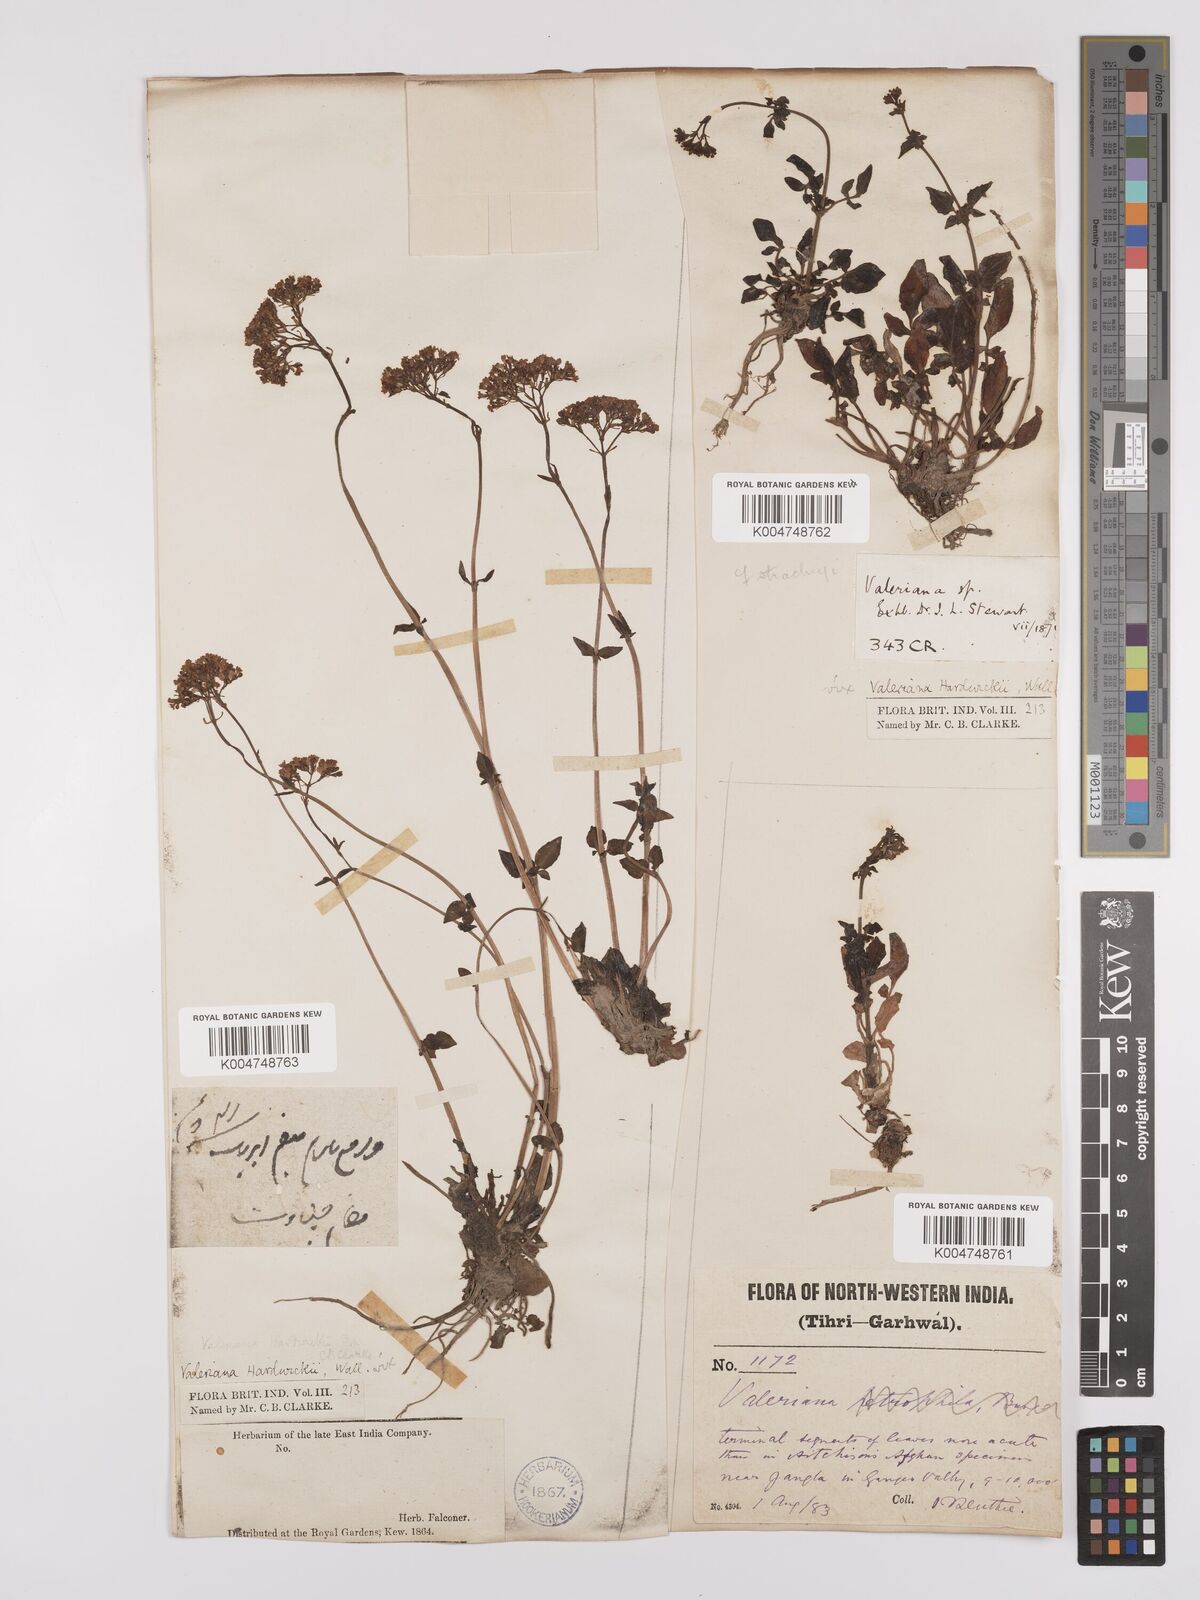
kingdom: Plantae
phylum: Tracheophyta
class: Magnoliopsida
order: Dipsacales
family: Caprifoliaceae
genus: Valeriana
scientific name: Valeriana
